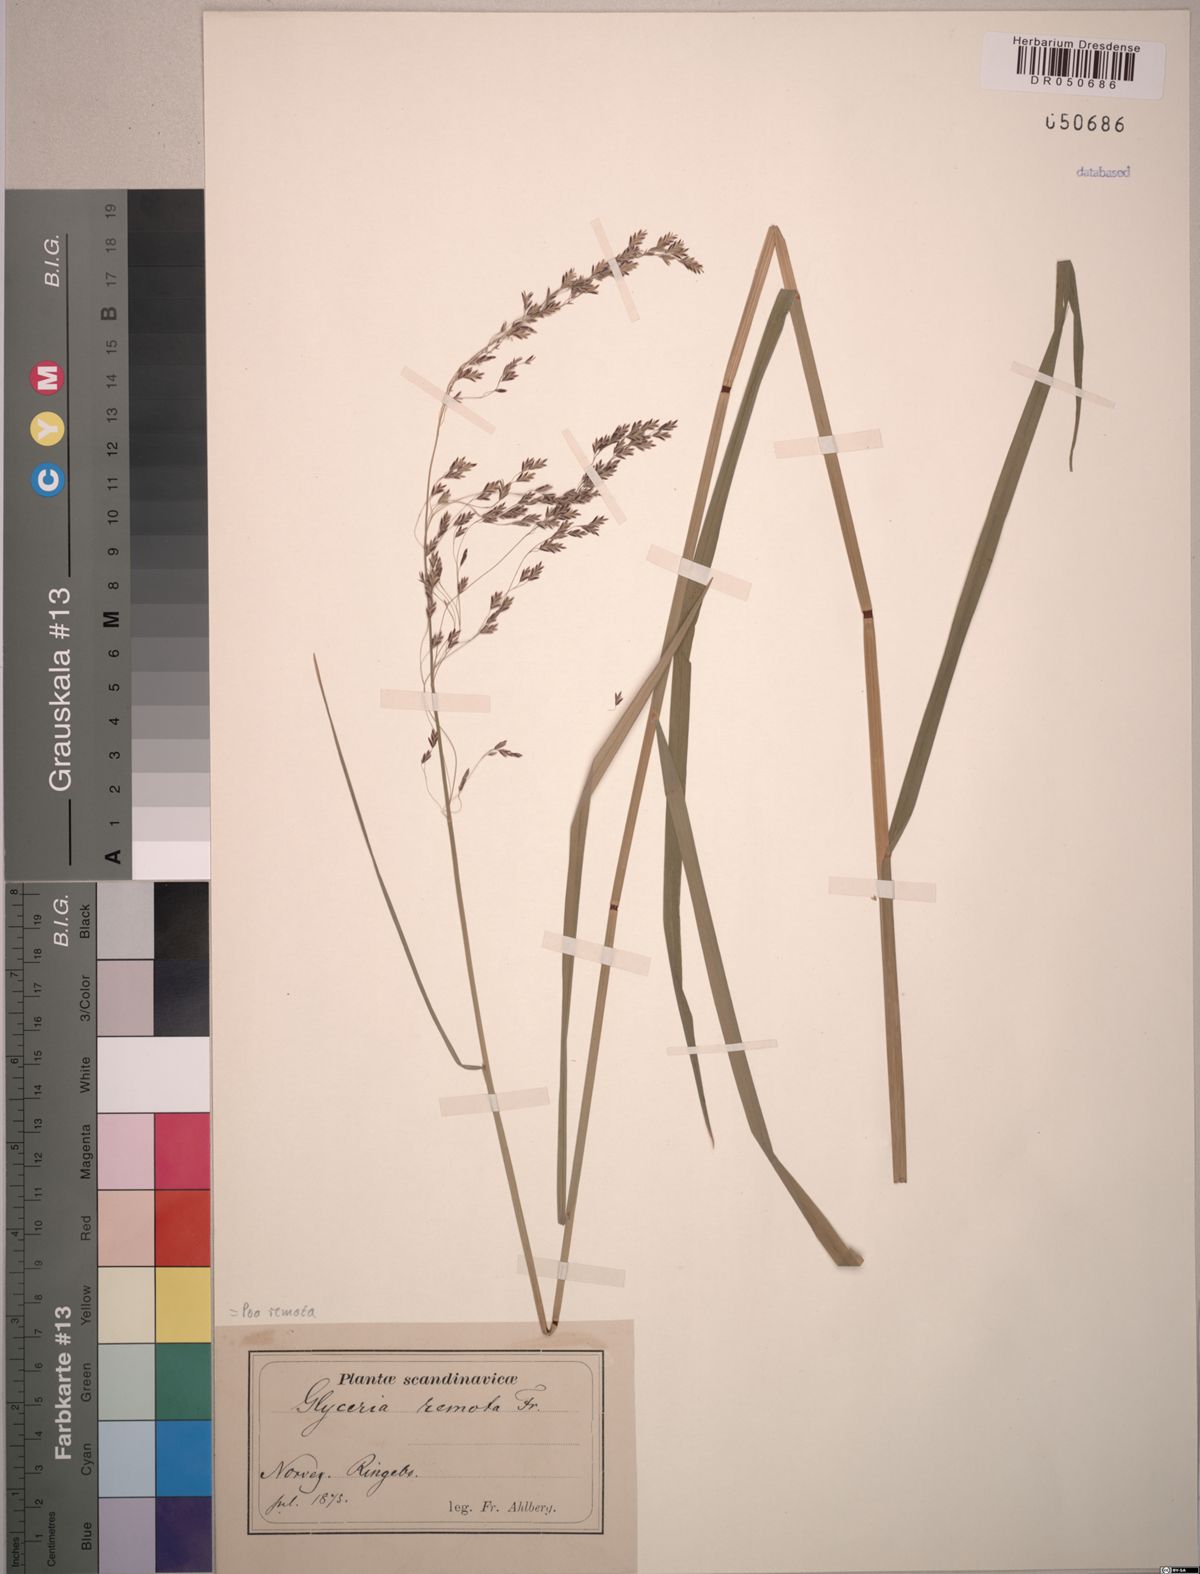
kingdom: Plantae
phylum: Tracheophyta
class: Liliopsida
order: Poales
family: Poaceae
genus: Poa
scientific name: Poa remota
